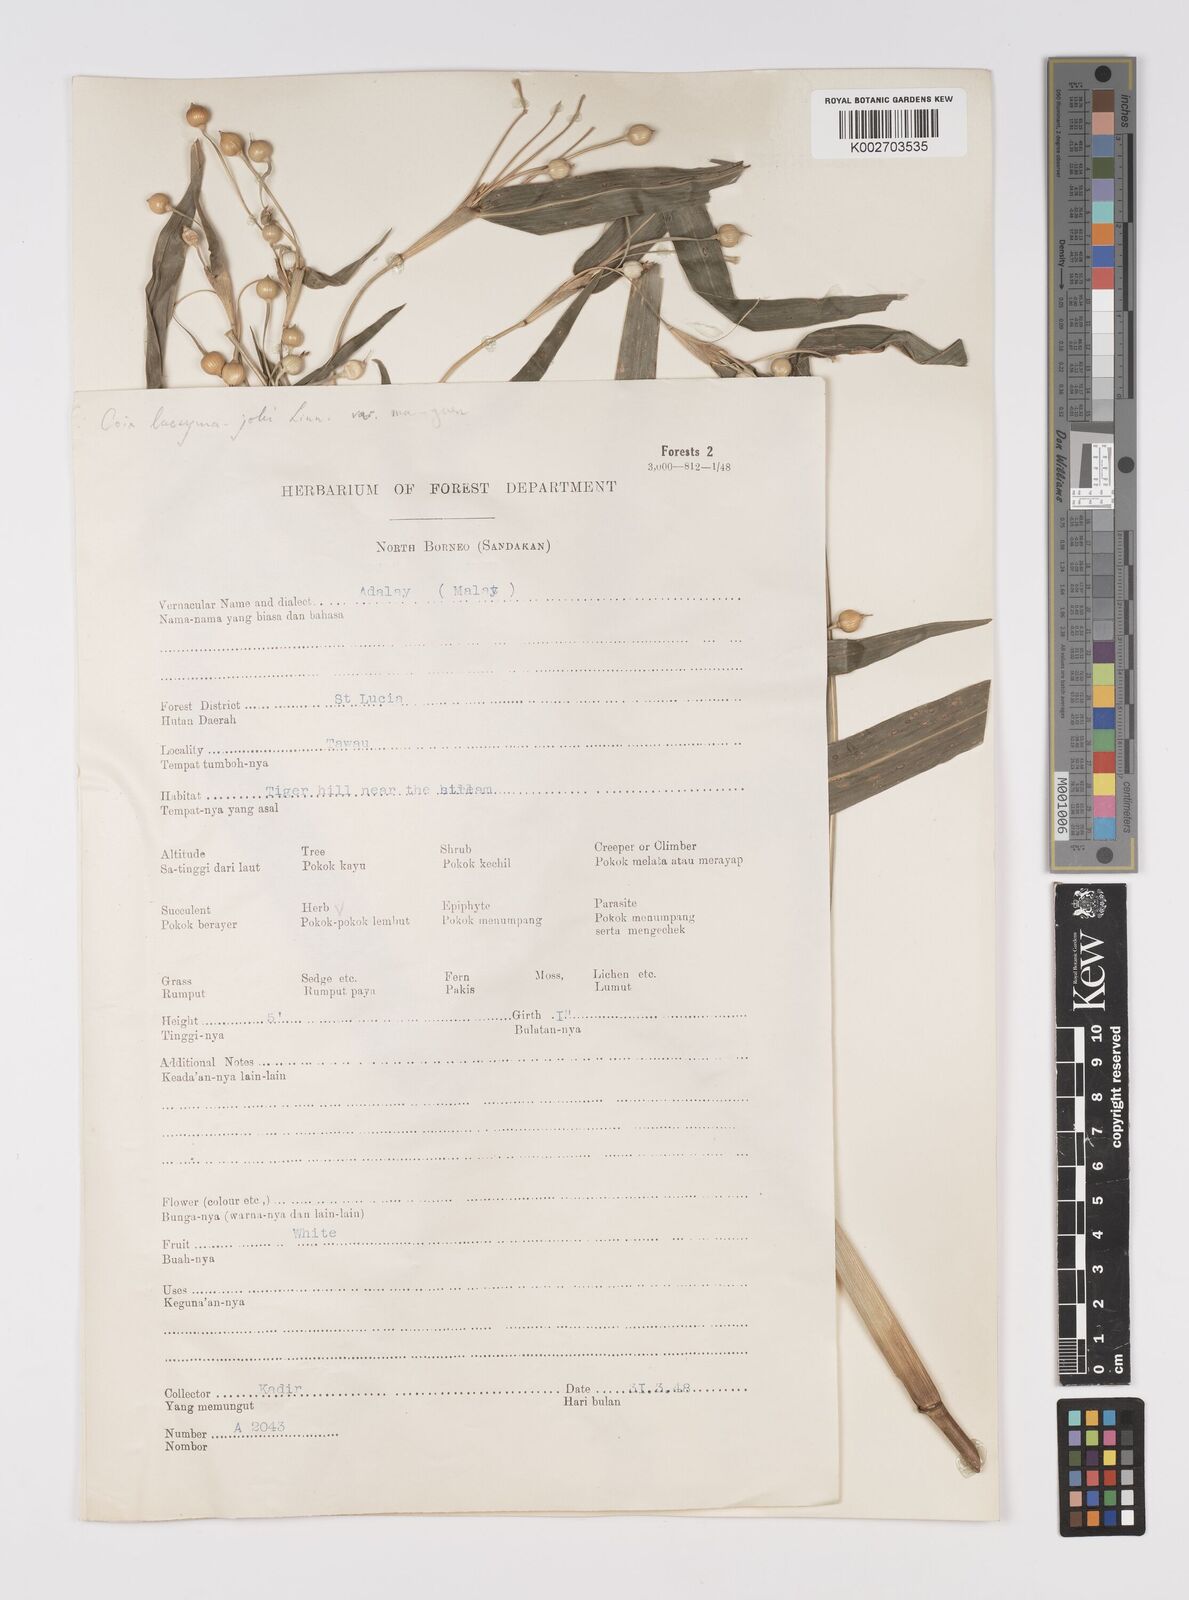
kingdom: Plantae
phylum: Tracheophyta
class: Liliopsida
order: Poales
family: Poaceae
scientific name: Poaceae
